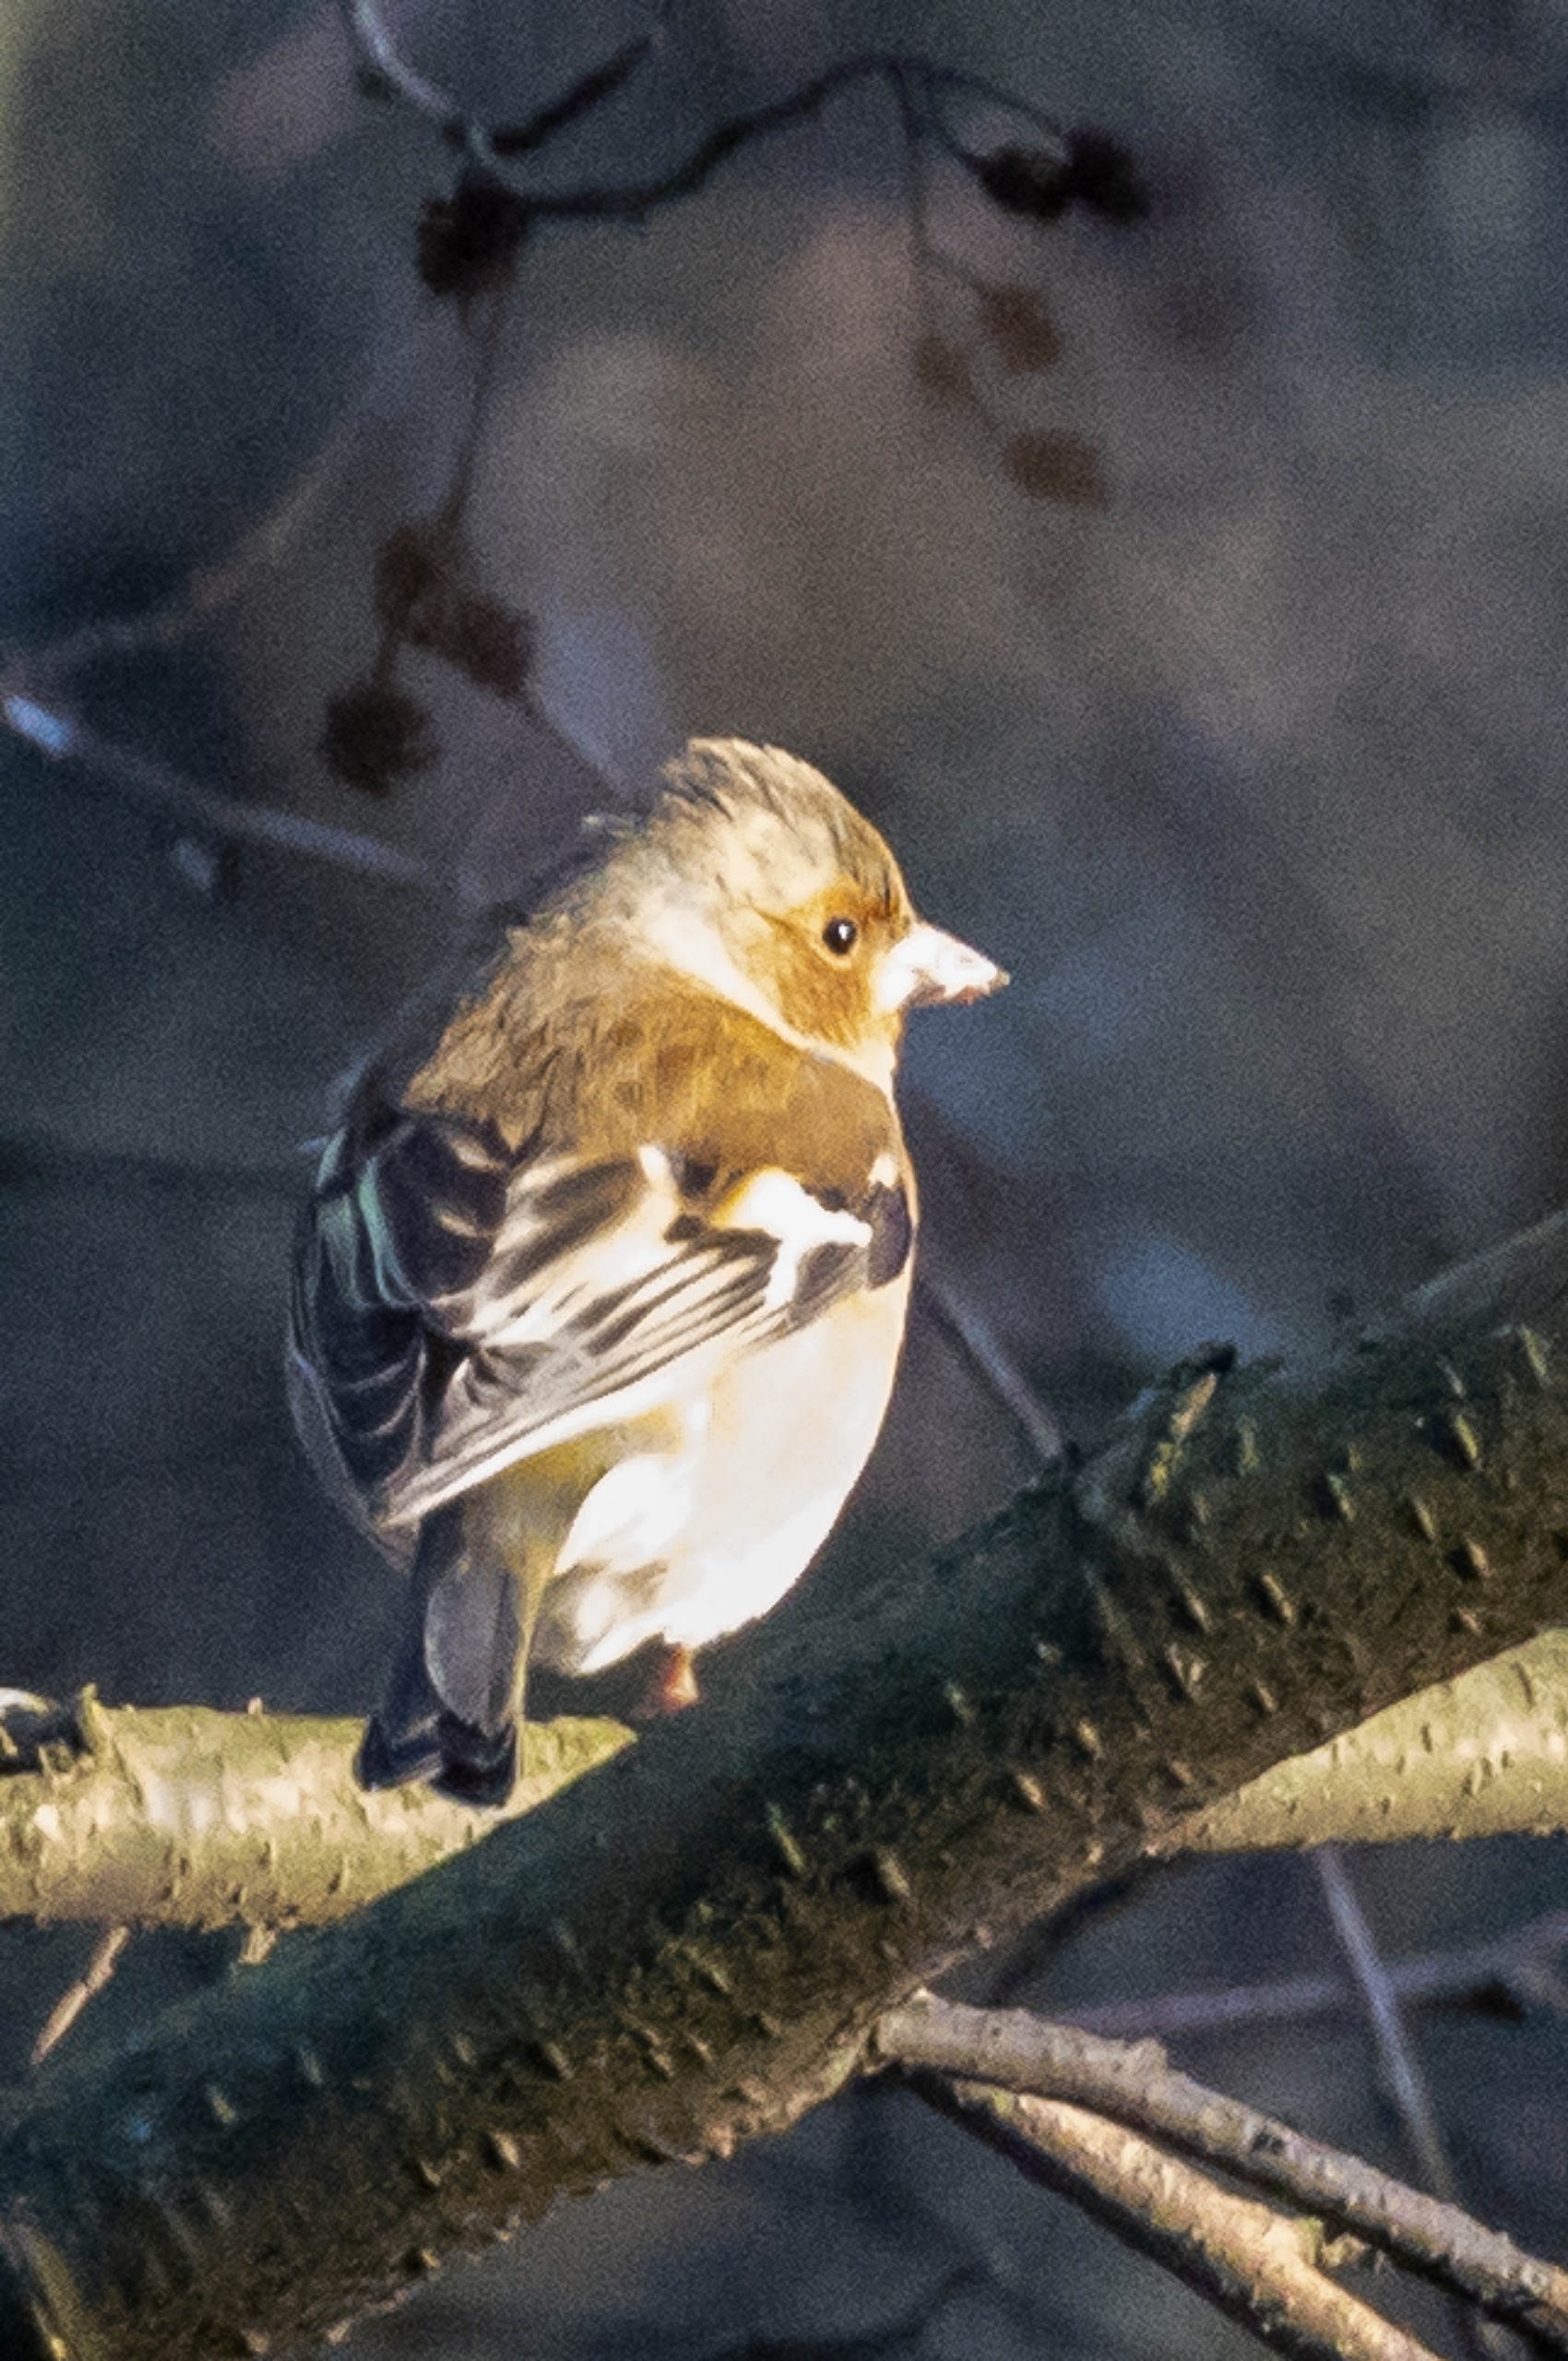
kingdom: Animalia
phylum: Chordata
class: Aves
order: Passeriformes
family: Fringillidae
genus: Fringilla
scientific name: Fringilla coelebs
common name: Bogfinke
